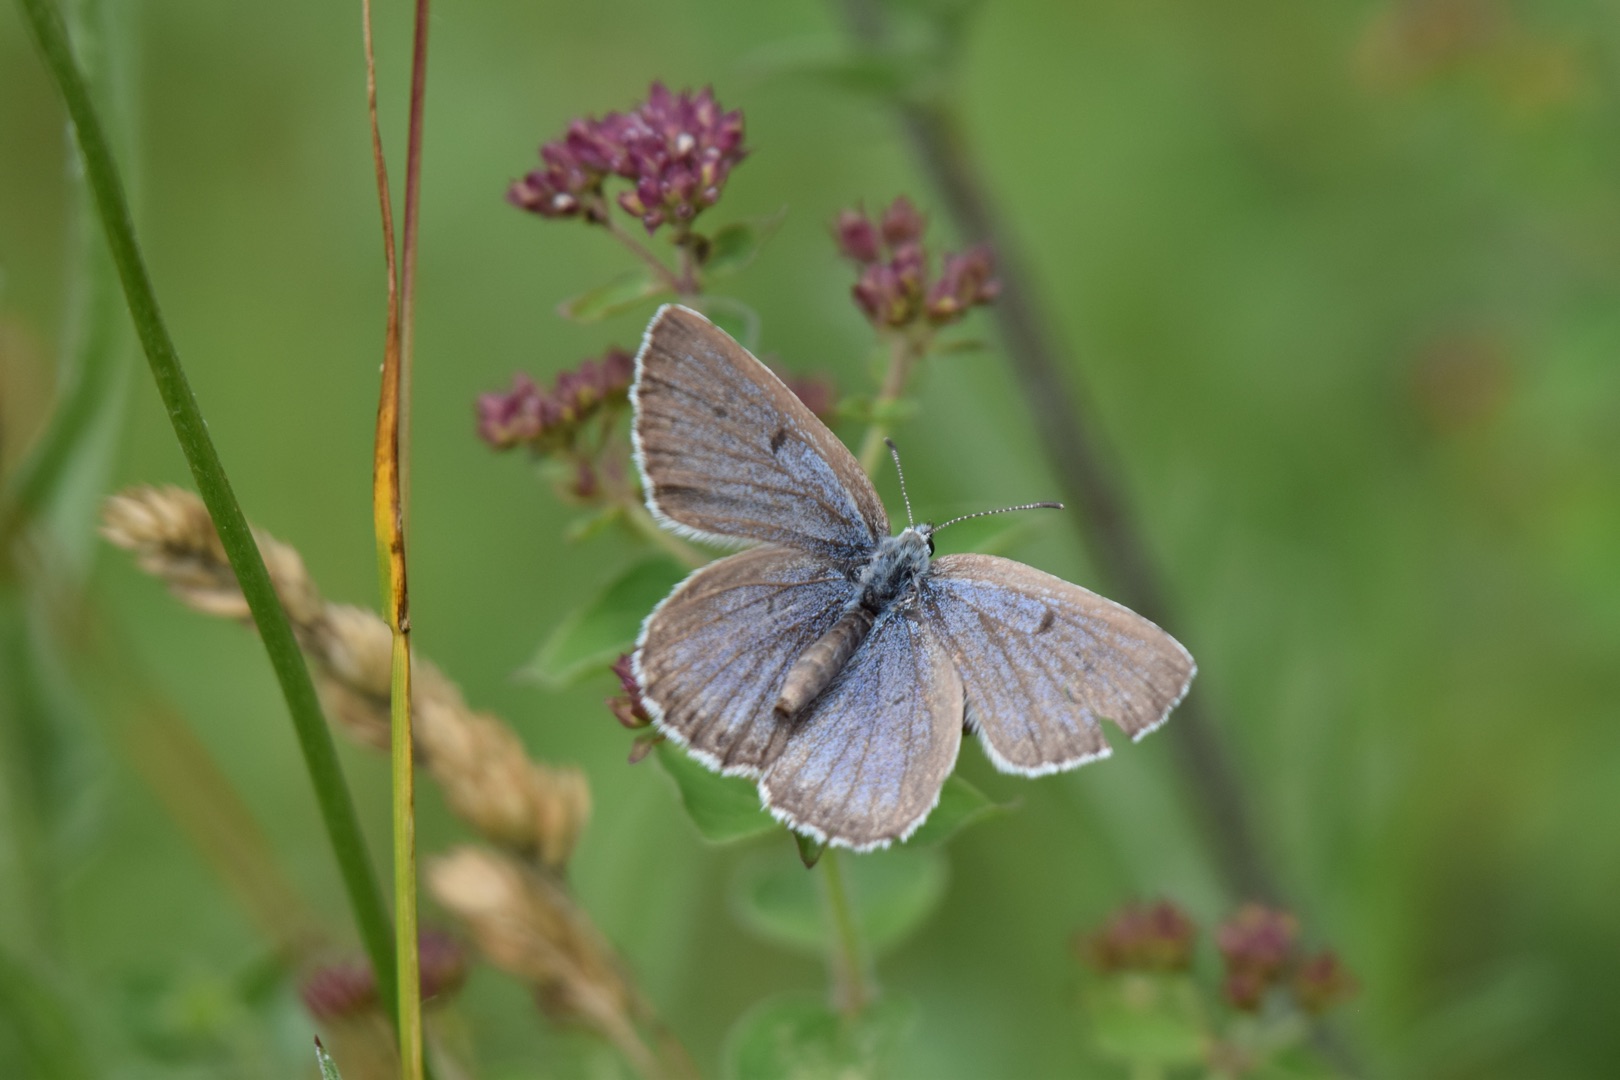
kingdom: Animalia
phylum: Arthropoda
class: Insecta
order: Lepidoptera
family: Lycaenidae
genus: Maculinea
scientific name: Maculinea arion
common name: Sortplettet blåfugl
